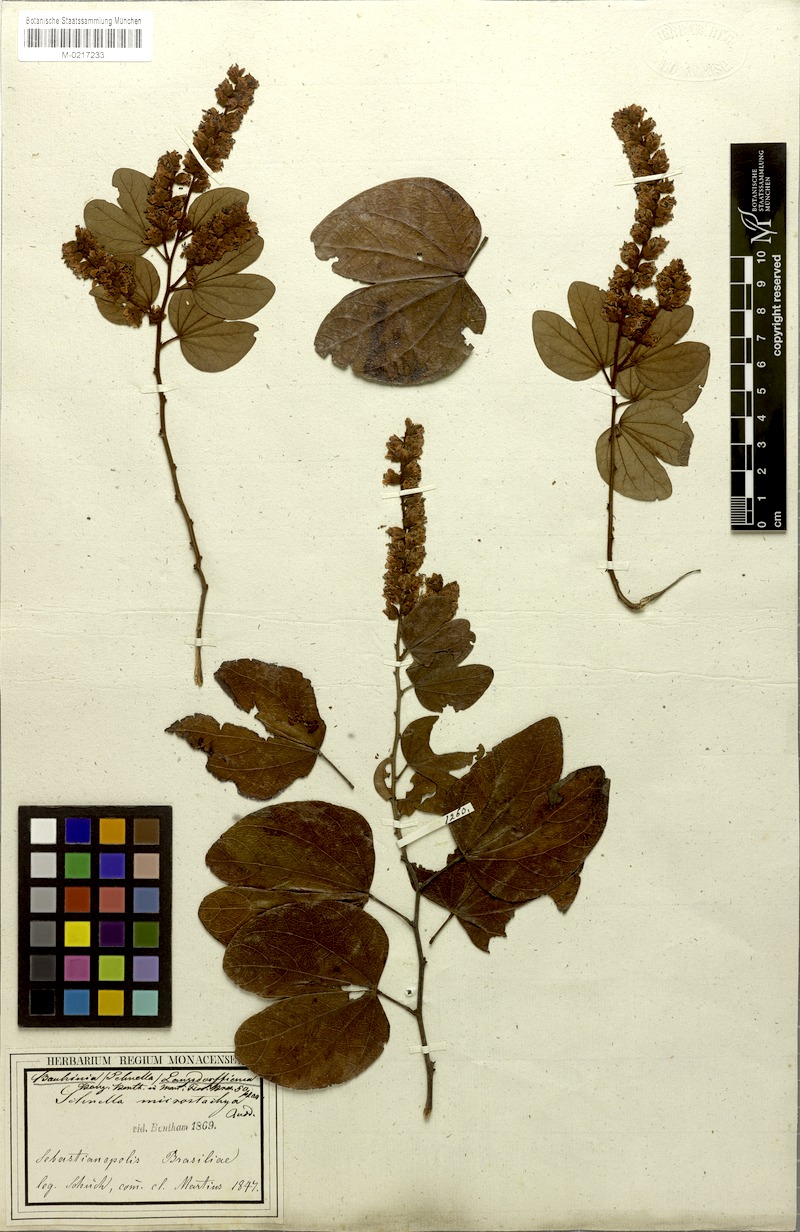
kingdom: Plantae
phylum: Tracheophyta
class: Magnoliopsida
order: Fabales
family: Fabaceae
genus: Schnella
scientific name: Schnella microstachya
